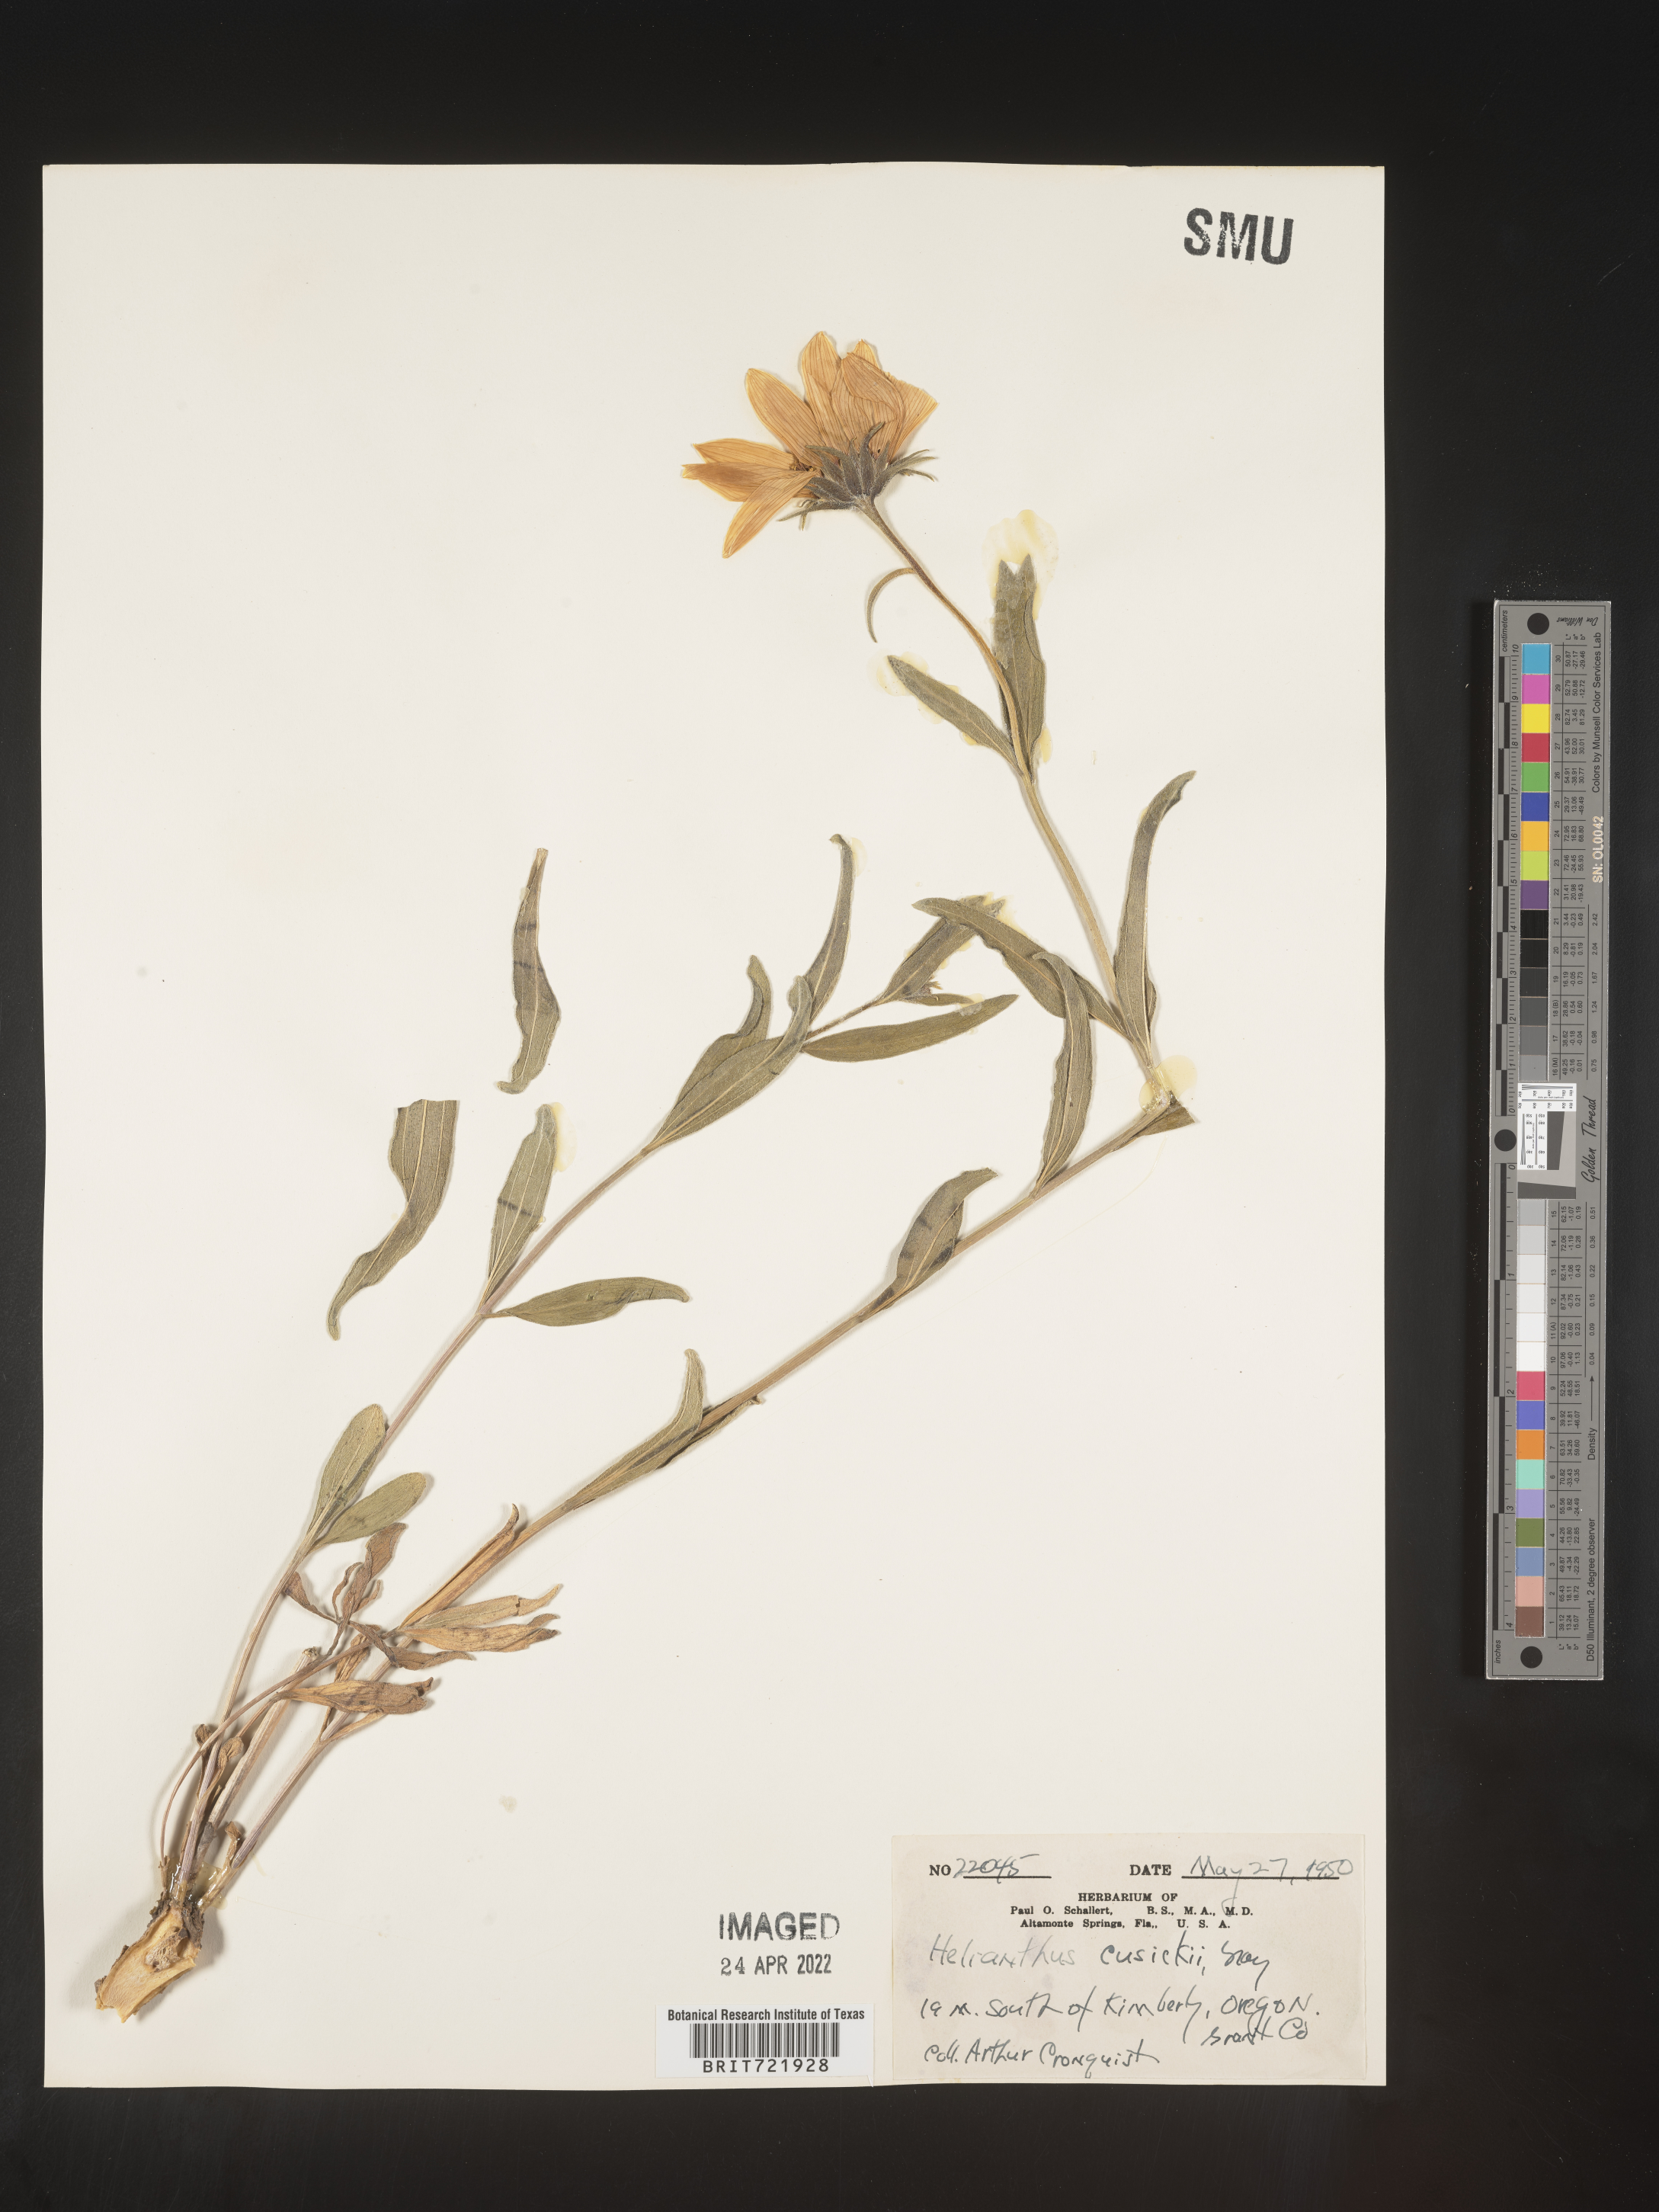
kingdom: Plantae
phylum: Tracheophyta
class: Magnoliopsida
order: Asterales
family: Asteraceae
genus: Helianthus
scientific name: Helianthus cusickii
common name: Cusick's sunflower
